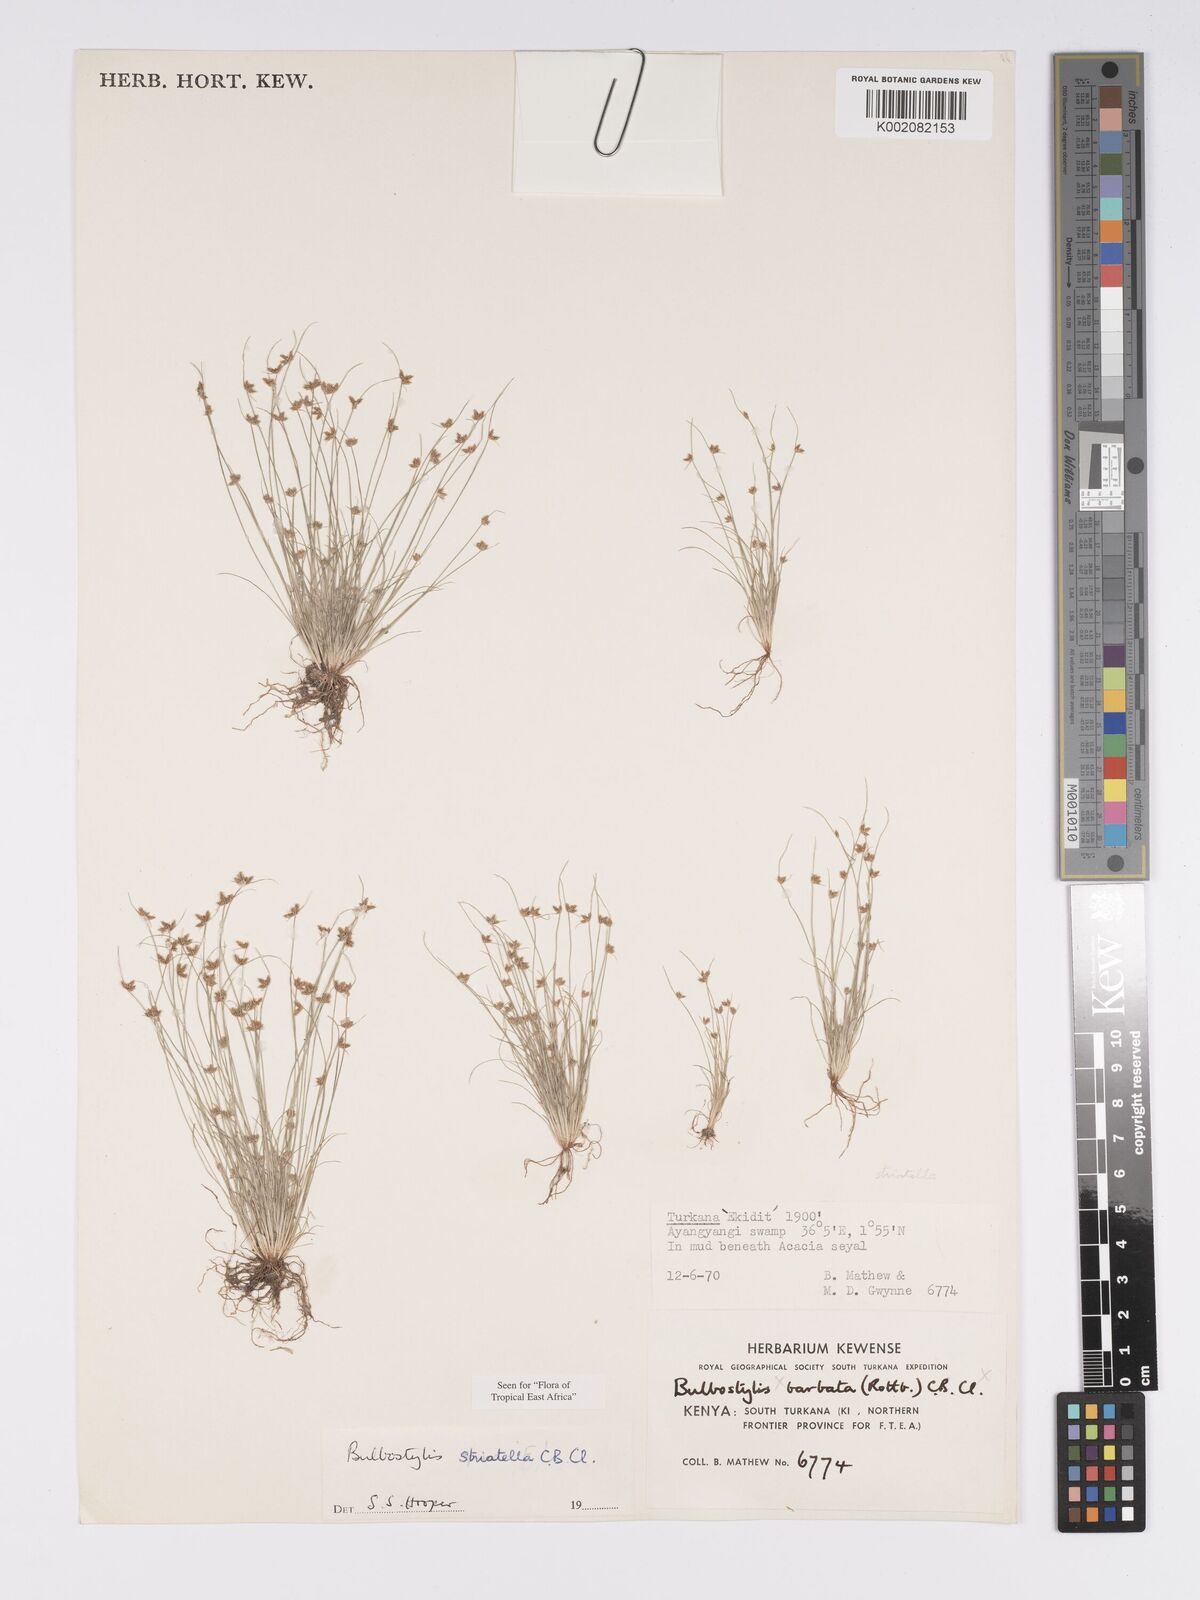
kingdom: Plantae
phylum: Tracheophyta
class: Liliopsida
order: Poales
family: Cyperaceae
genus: Bulbostylis
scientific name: Bulbostylis humilis
